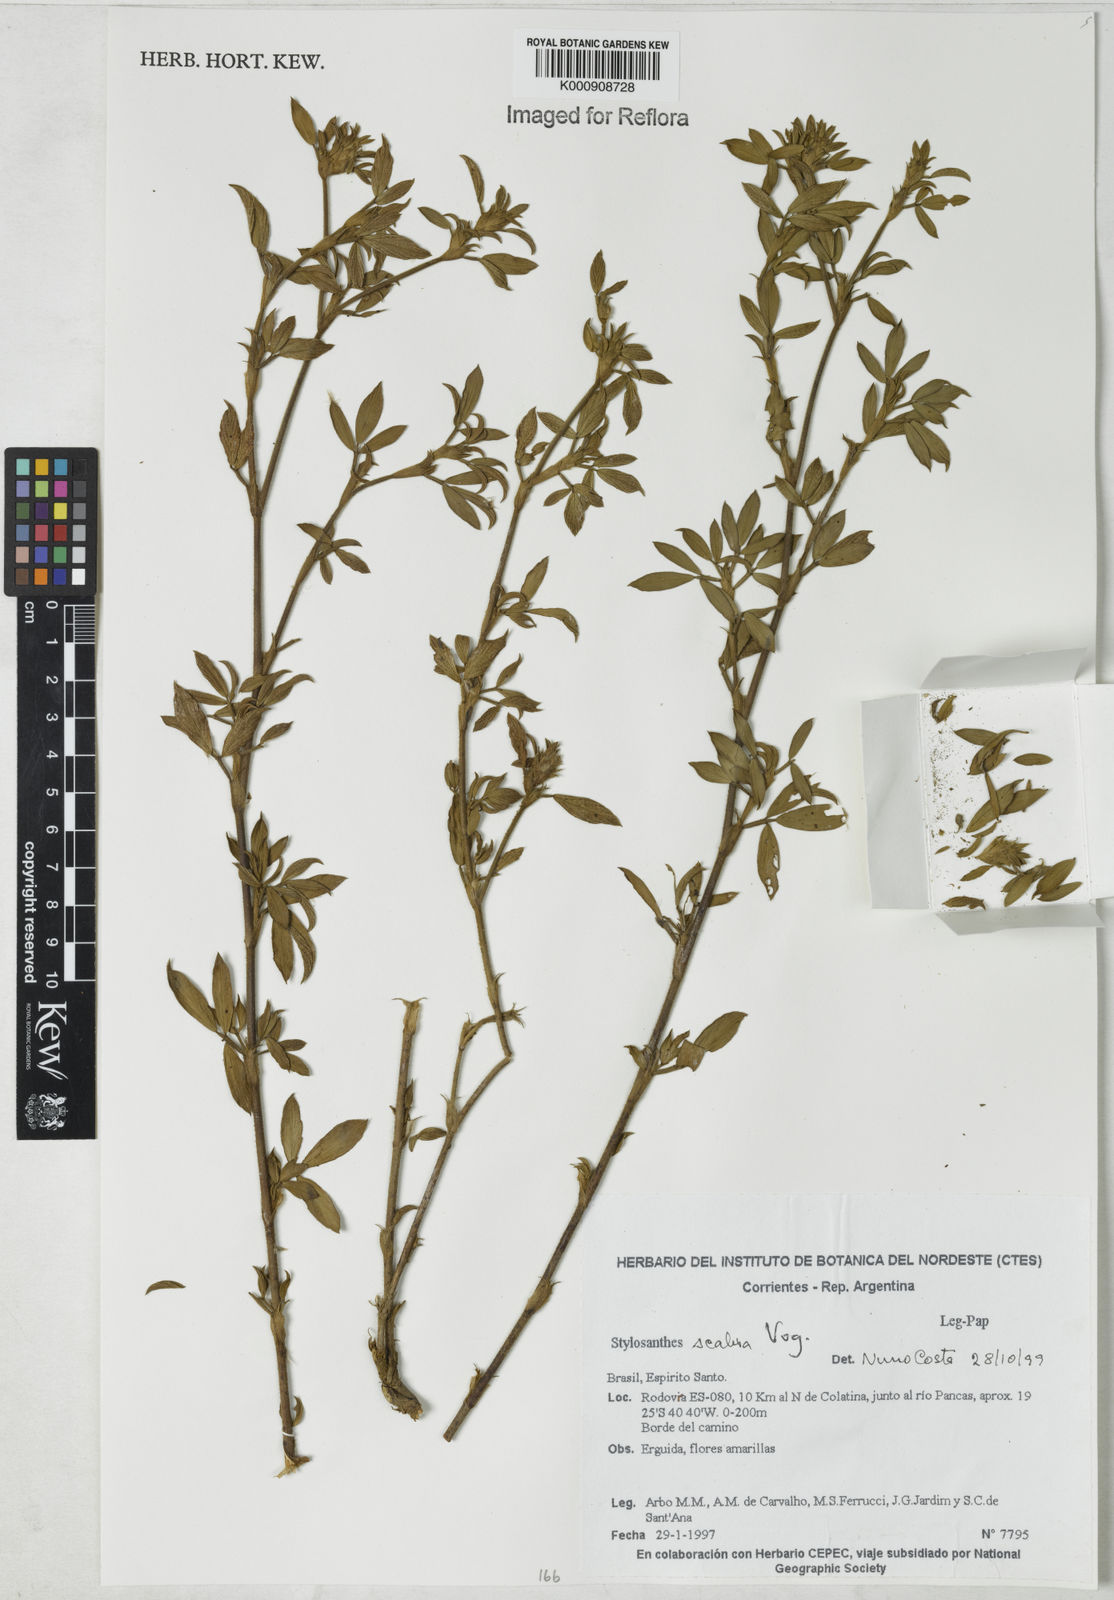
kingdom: Plantae
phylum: Tracheophyta
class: Magnoliopsida
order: Fabales
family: Fabaceae
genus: Stylosanthes
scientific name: Stylosanthes scabra
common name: Pencilflower
